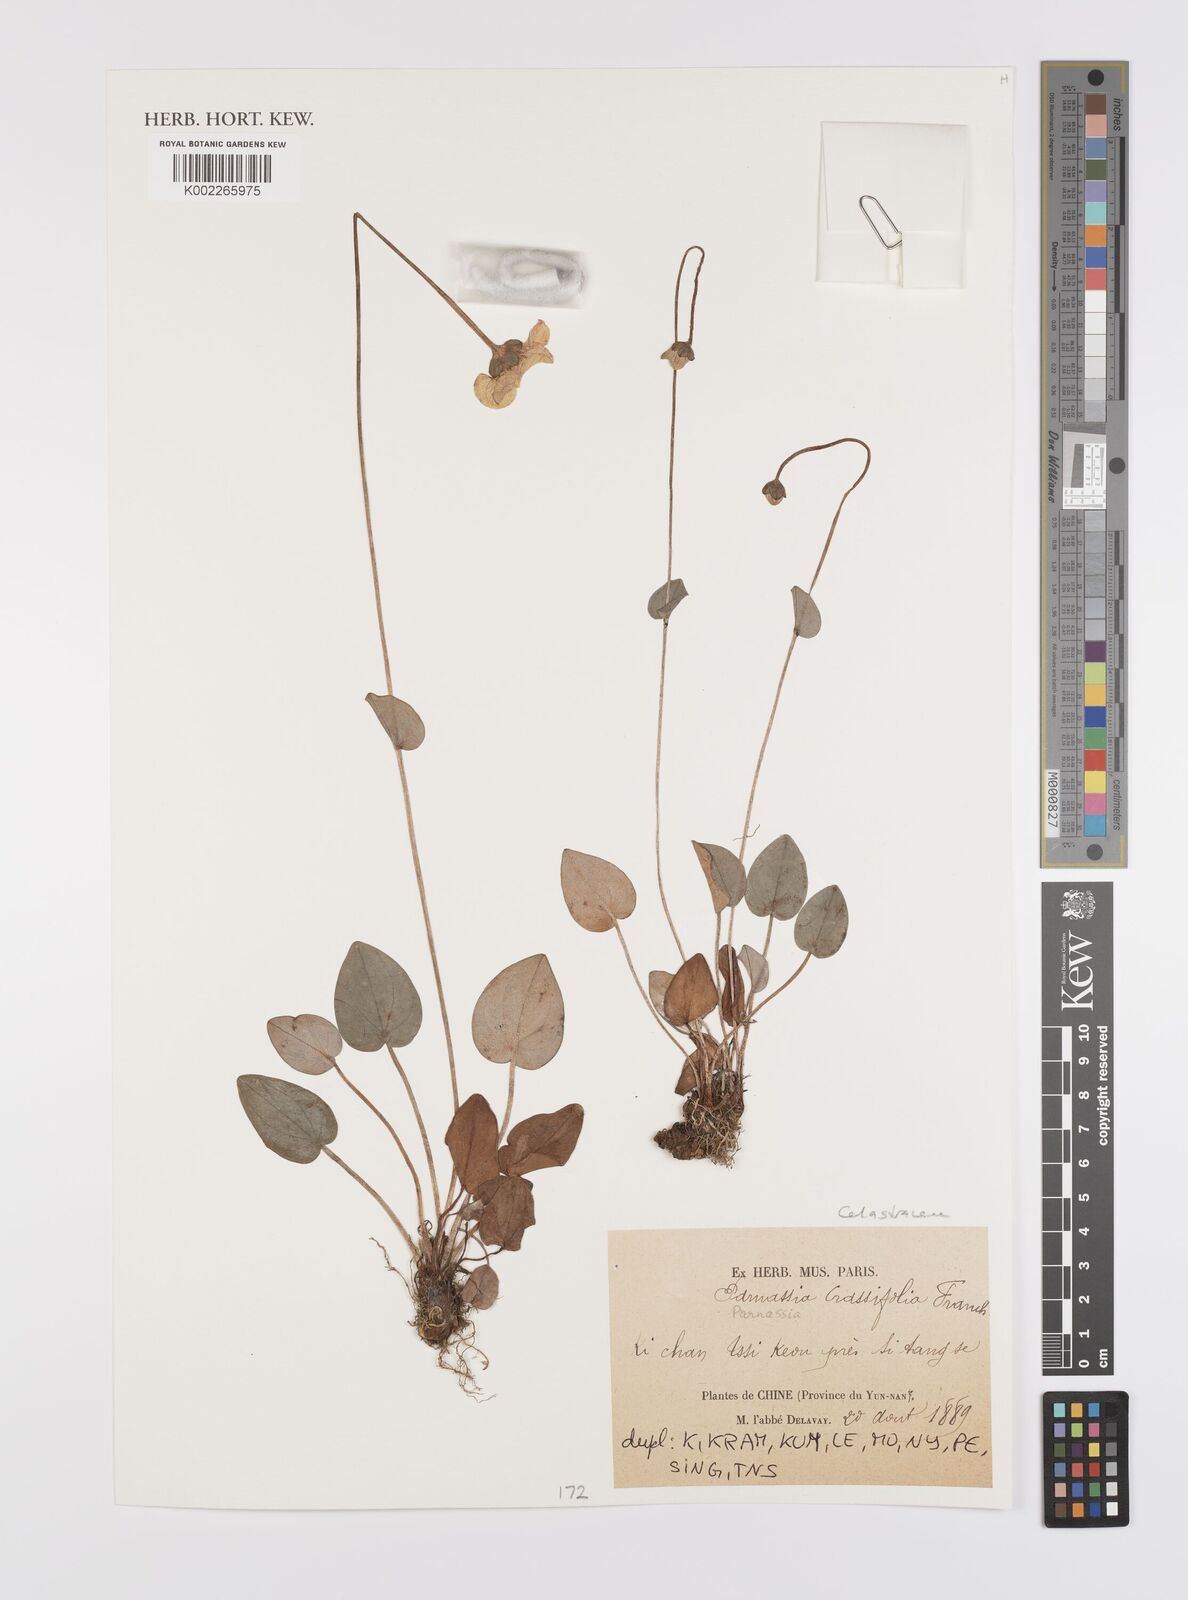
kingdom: Plantae
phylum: Tracheophyta
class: Magnoliopsida
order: Celastrales
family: Parnassiaceae
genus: Parnassia
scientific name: Parnassia crassifolia
